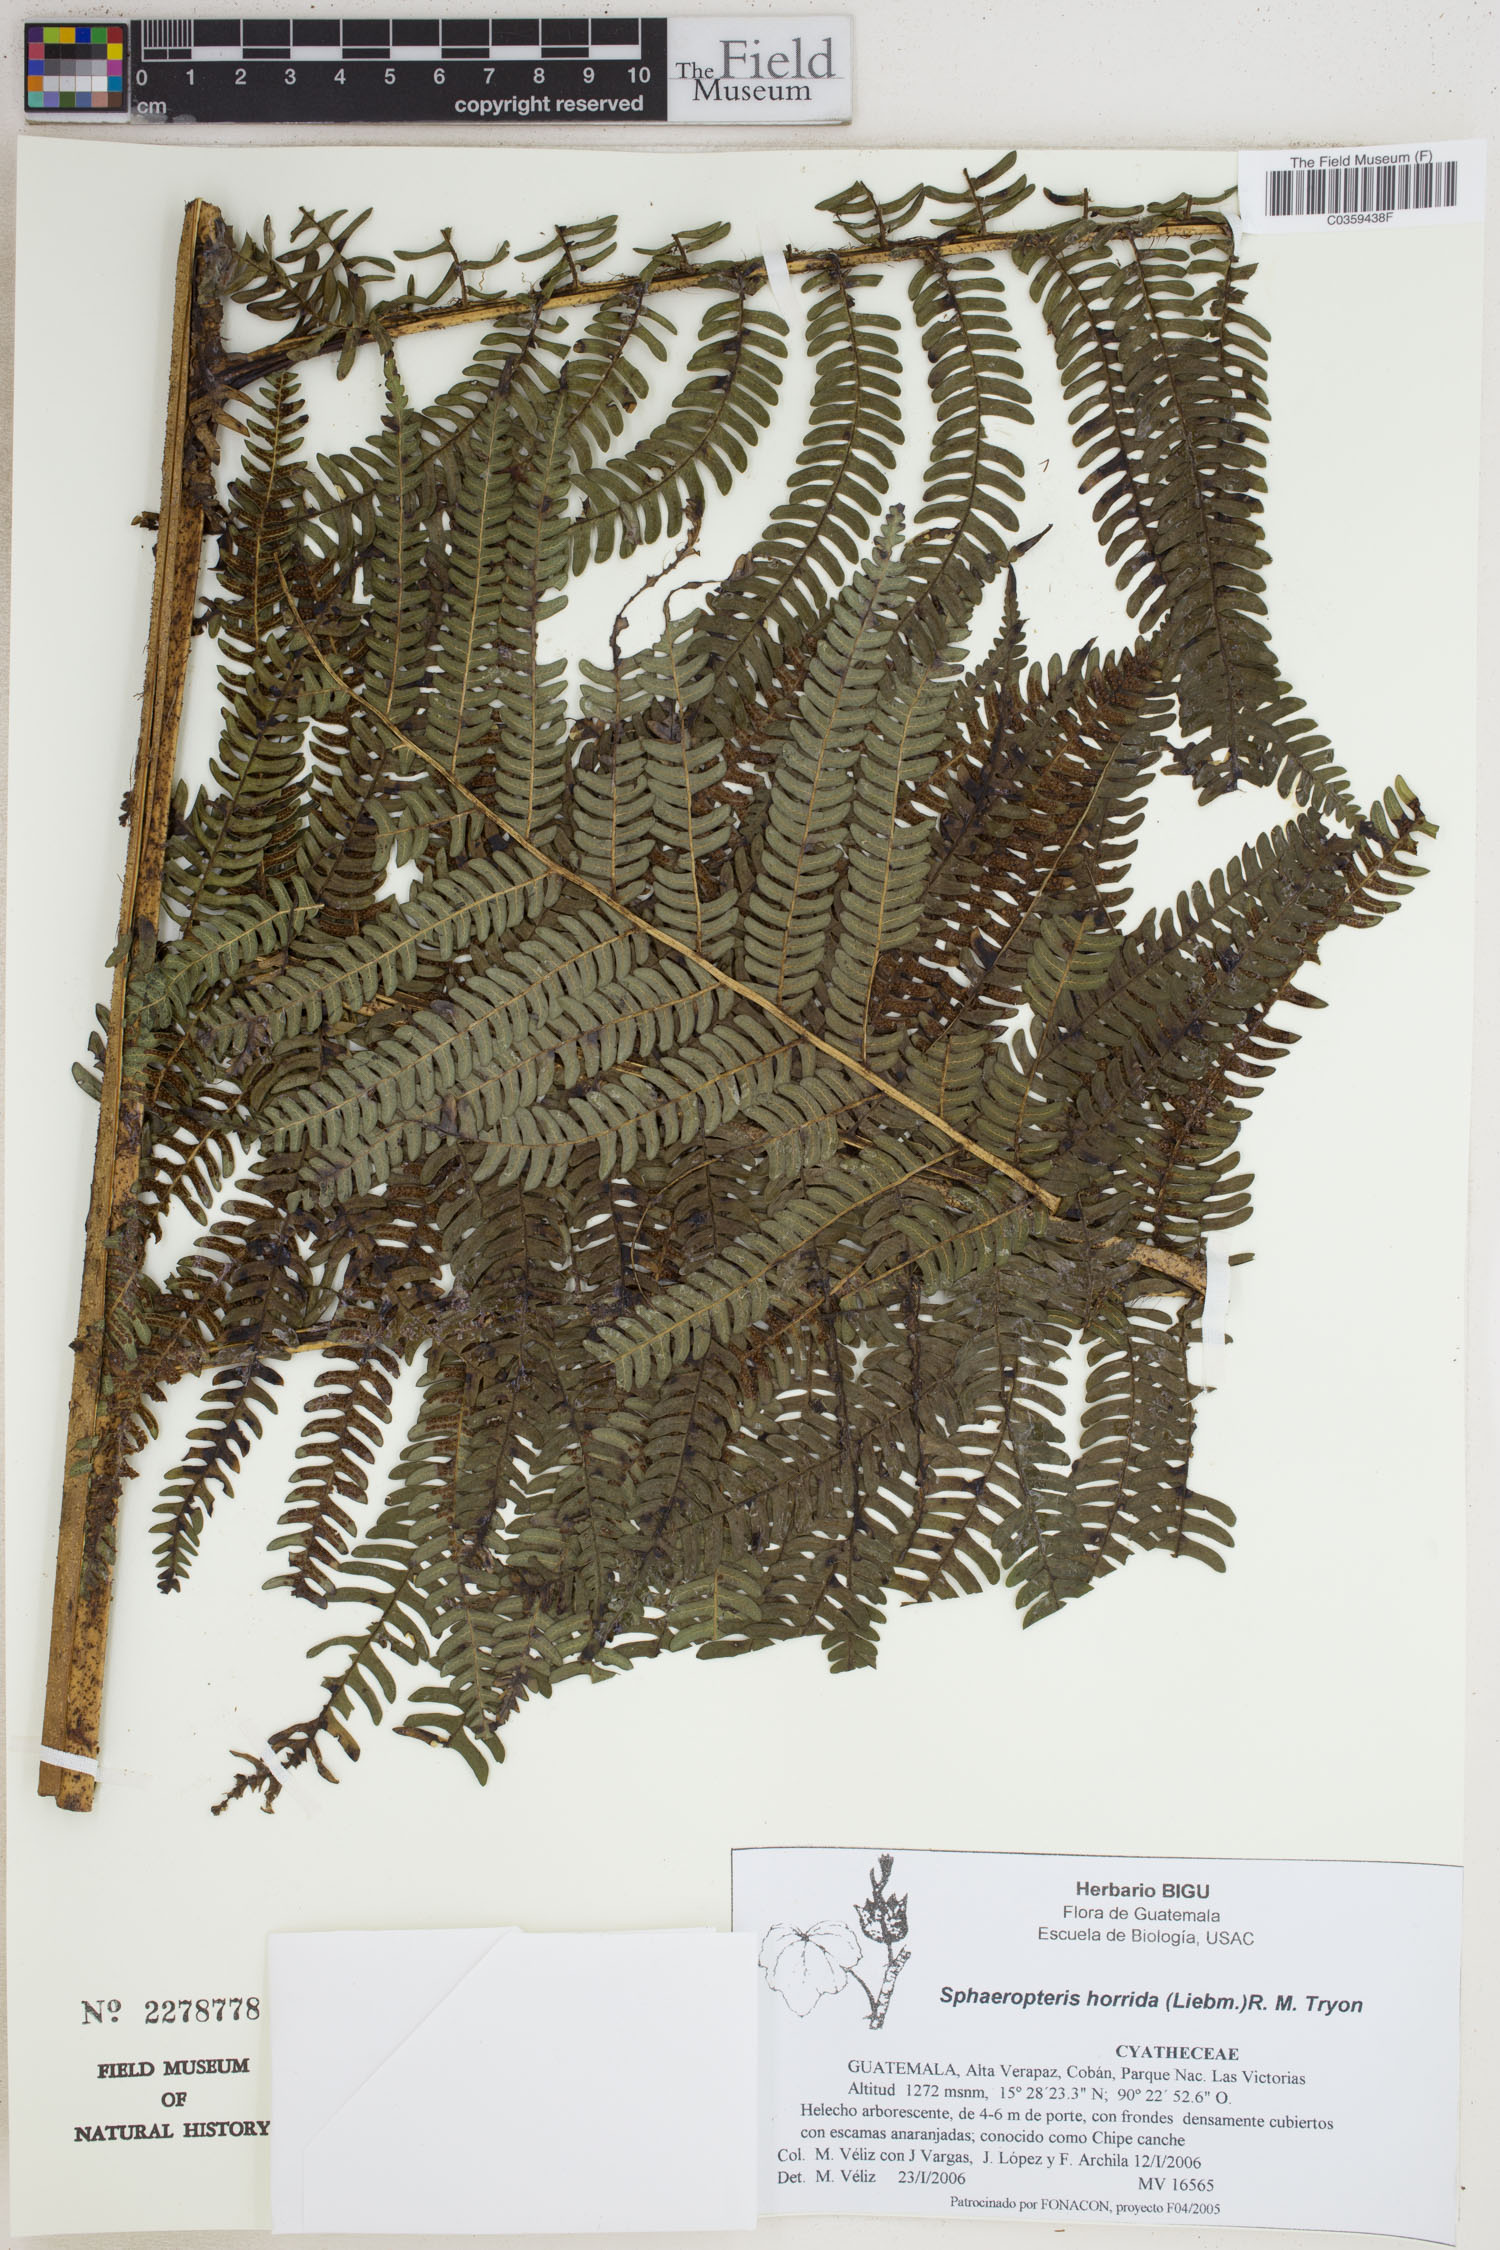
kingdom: Plantae
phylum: Tracheophyta
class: Polypodiopsida
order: Cyatheales
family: Cyatheaceae
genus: Sphaeropteris
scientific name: Sphaeropteris horrida
